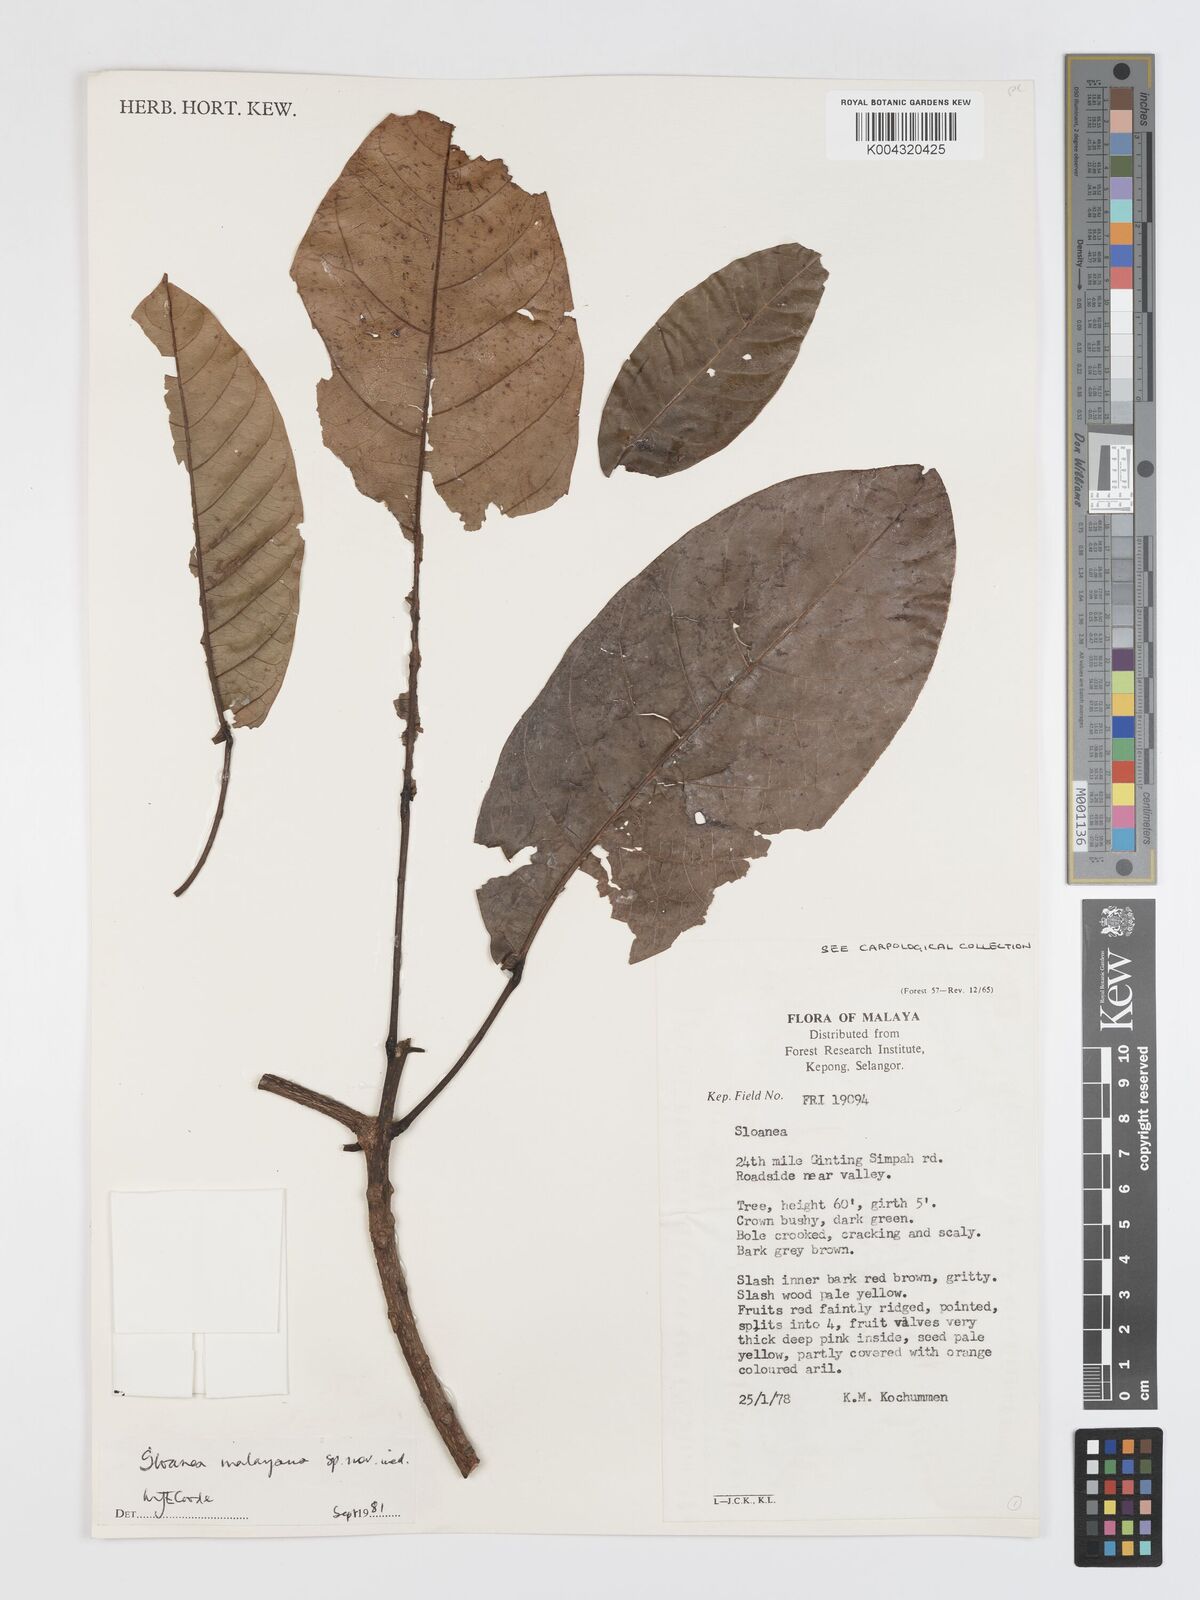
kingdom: Plantae
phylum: Tracheophyta
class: Magnoliopsida
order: Oxalidales
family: Elaeocarpaceae
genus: Sloanea
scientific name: Sloanea malayana
